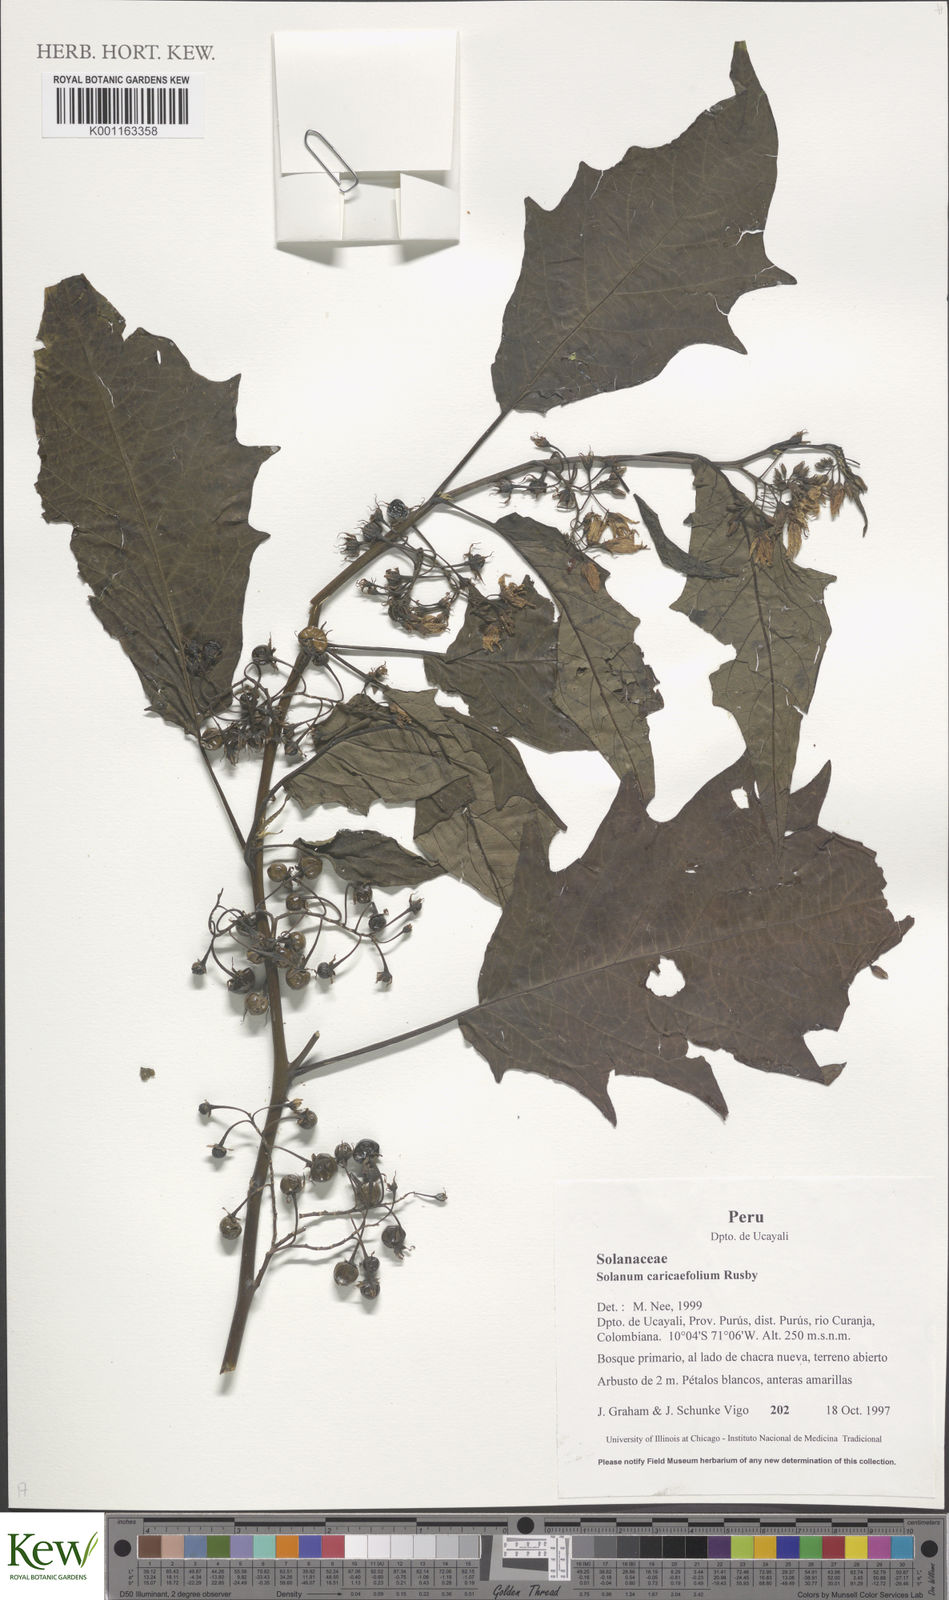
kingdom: Plantae
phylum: Tracheophyta
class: Magnoliopsida
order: Solanales
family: Solanaceae
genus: Solanum
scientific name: Solanum caricaefolium
